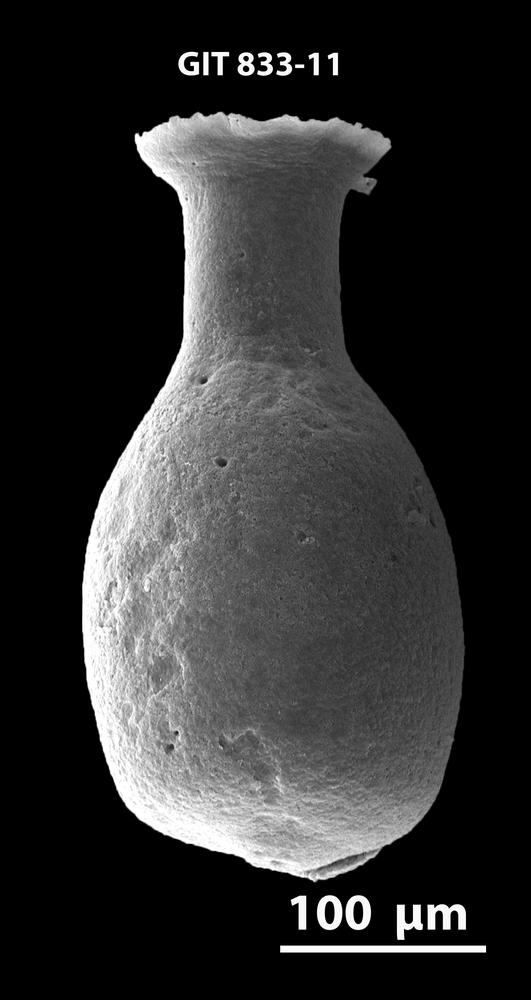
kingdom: Animalia
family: Lagenochitinidae
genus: Lagenochitina
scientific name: Lagenochitina
